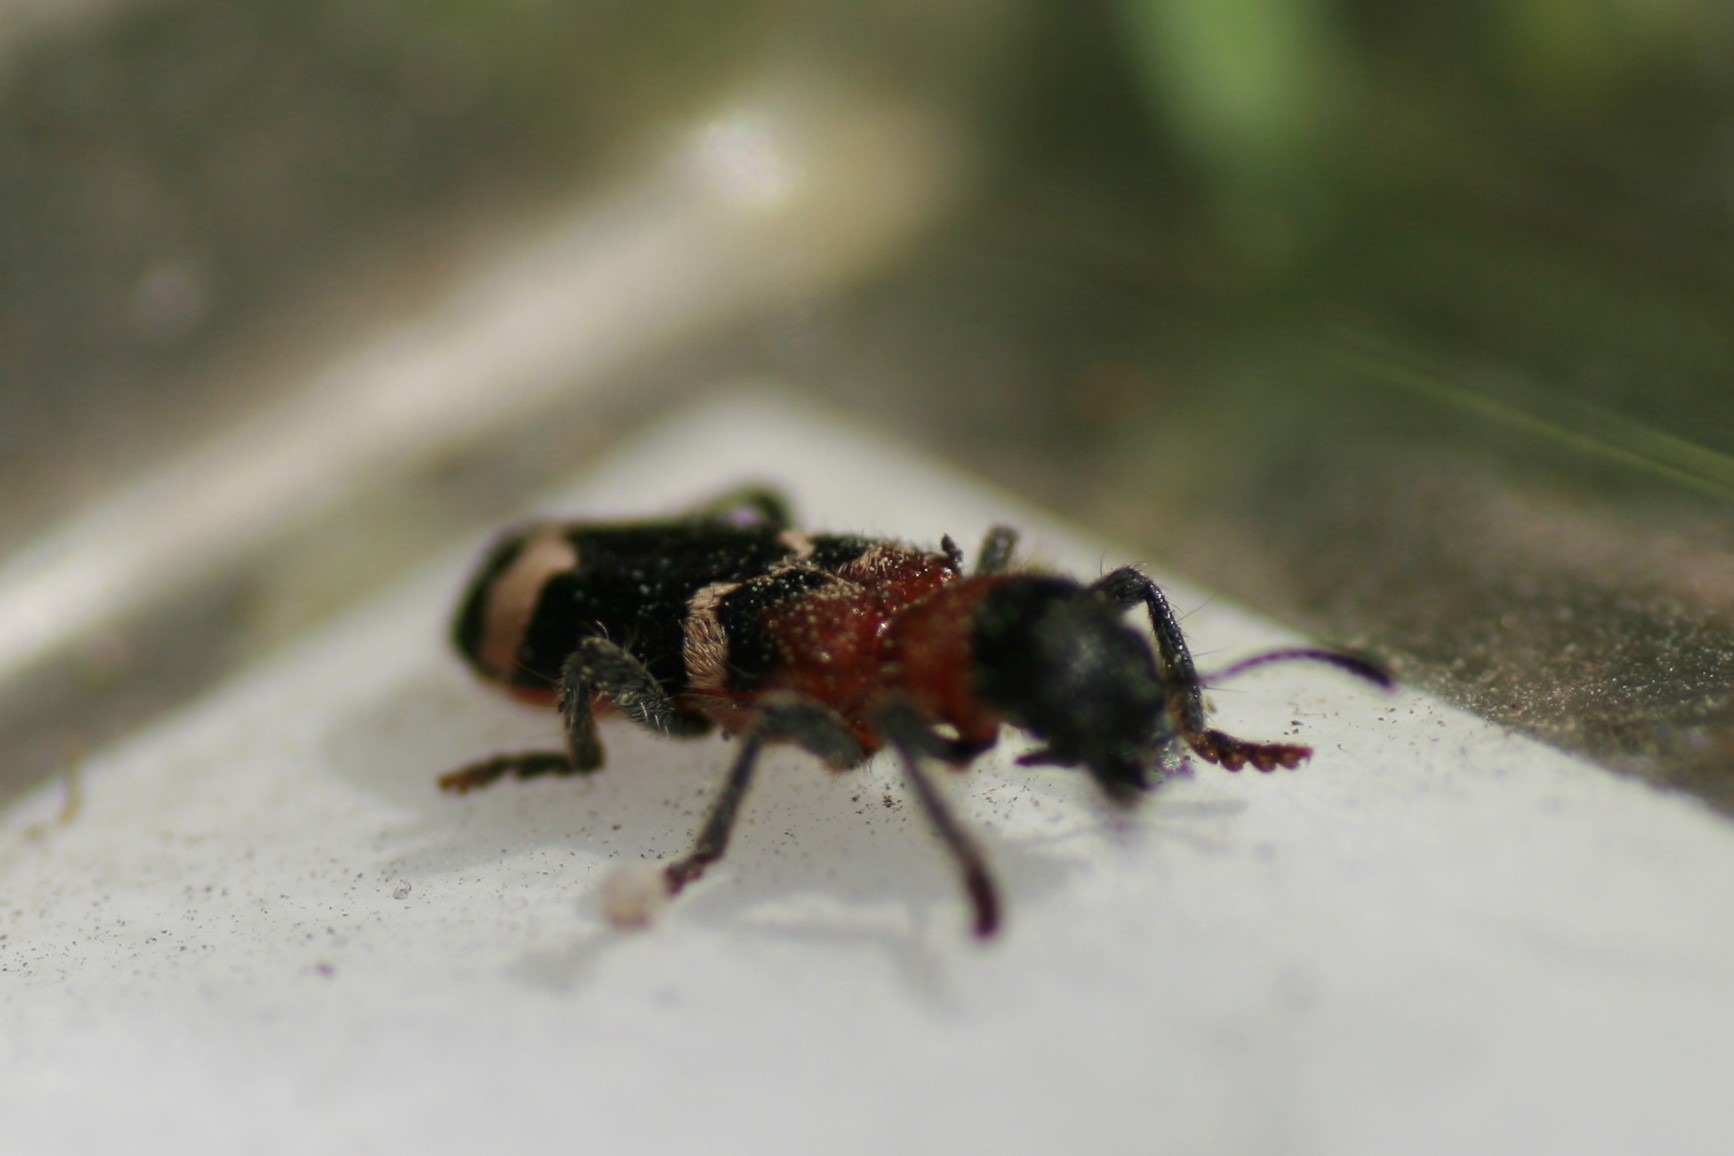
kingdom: Animalia
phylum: Arthropoda
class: Insecta
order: Coleoptera
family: Cleridae
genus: Thanasimus
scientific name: Thanasimus formicarius
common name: Myrebille
